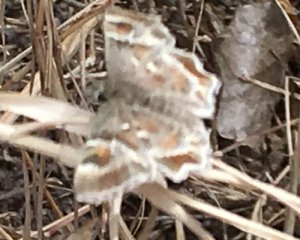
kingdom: Animalia
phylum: Arthropoda
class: Insecta
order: Lepidoptera
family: Hesperiidae
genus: Systasea
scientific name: Systasea zampa
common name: Arizona Powdered-Skipper
